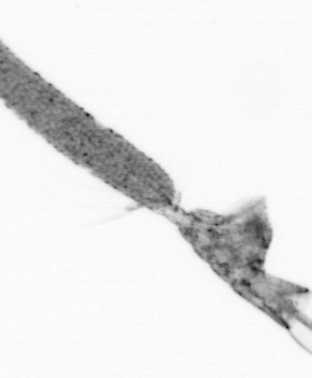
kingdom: Animalia
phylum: Arthropoda
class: Copepoda
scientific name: Copepoda
